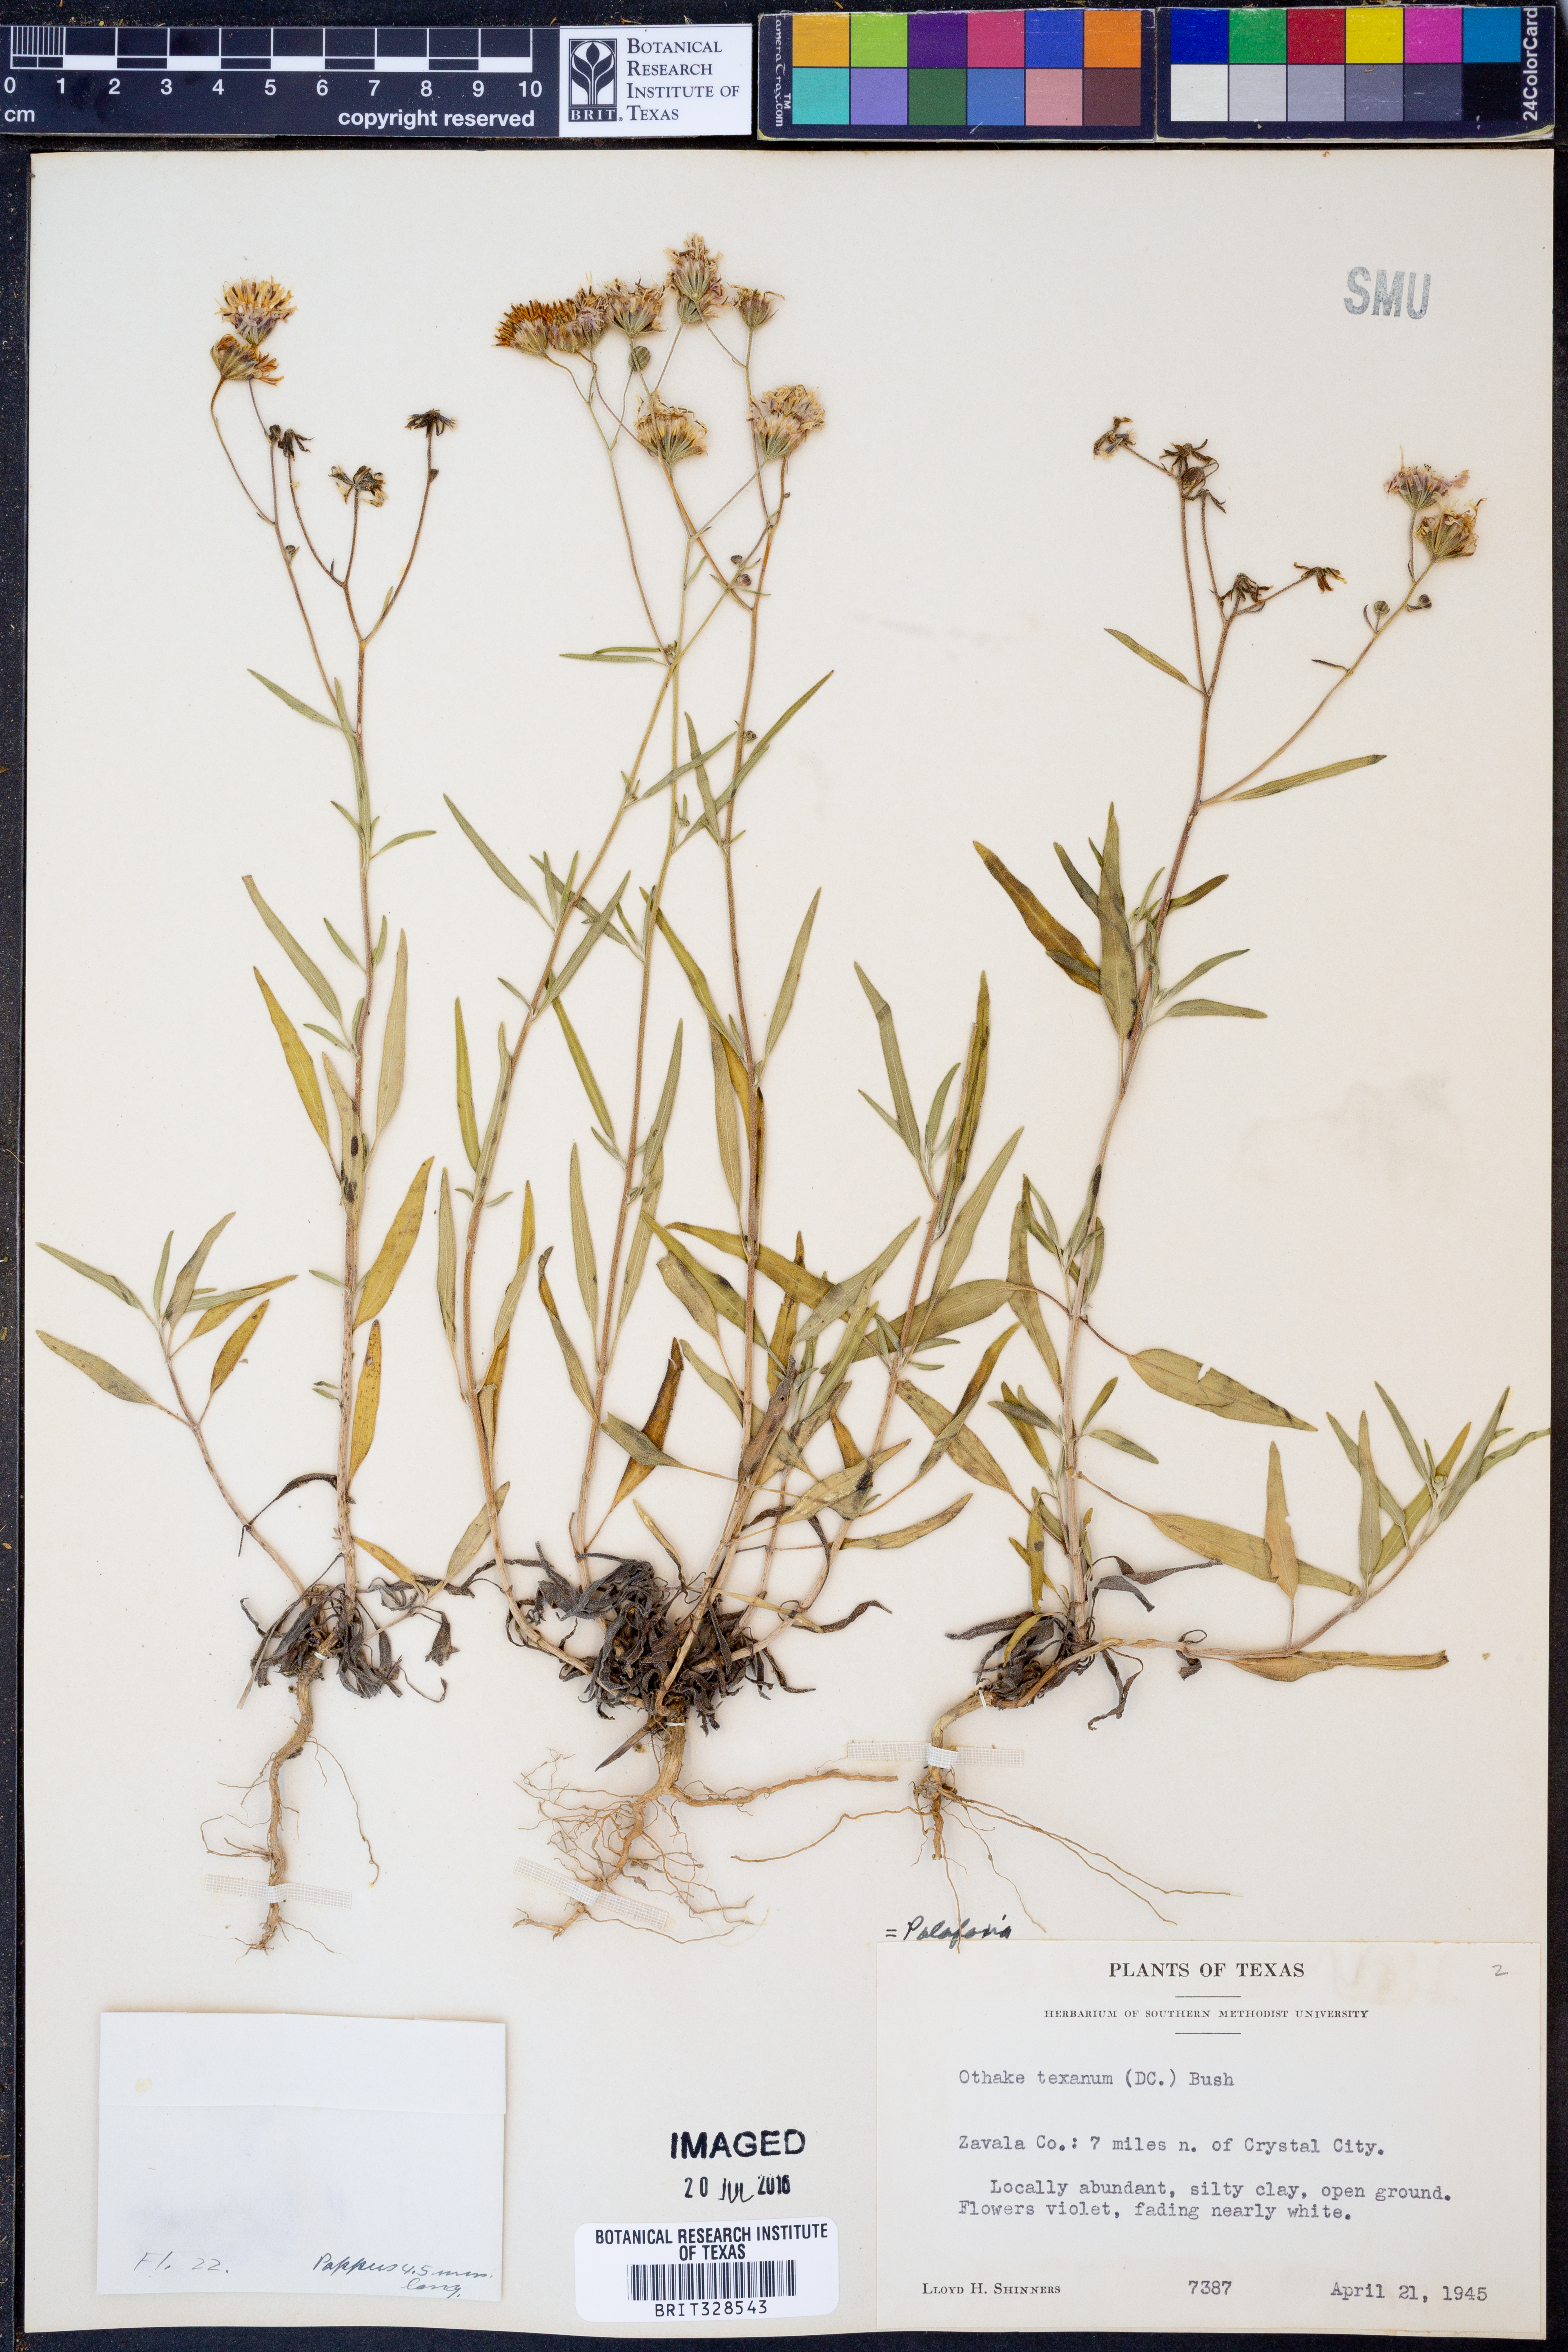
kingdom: Plantae
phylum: Tracheophyta
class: Magnoliopsida
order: Asterales
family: Asteraceae
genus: Palafoxia
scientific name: Palafoxia texana
